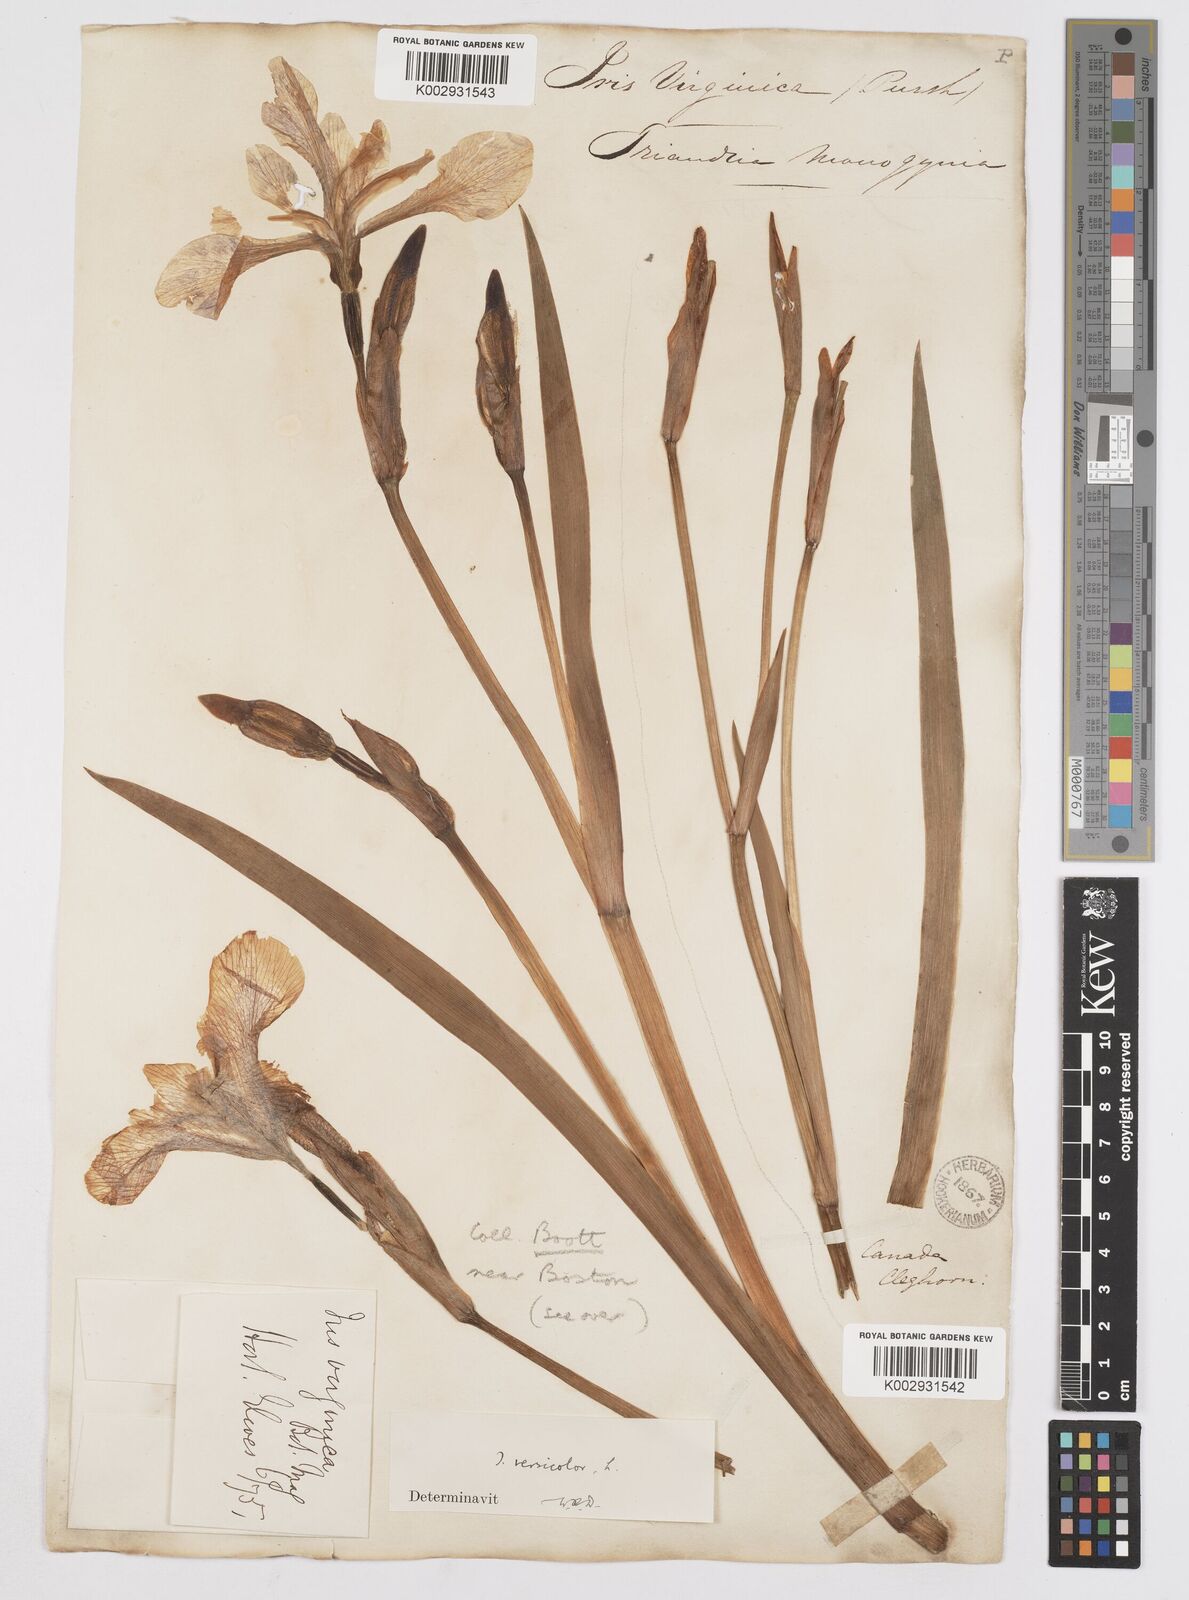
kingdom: Plantae
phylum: Tracheophyta
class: Liliopsida
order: Asparagales
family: Iridaceae
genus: Iris
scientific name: Iris versicolor
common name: Purple iris
